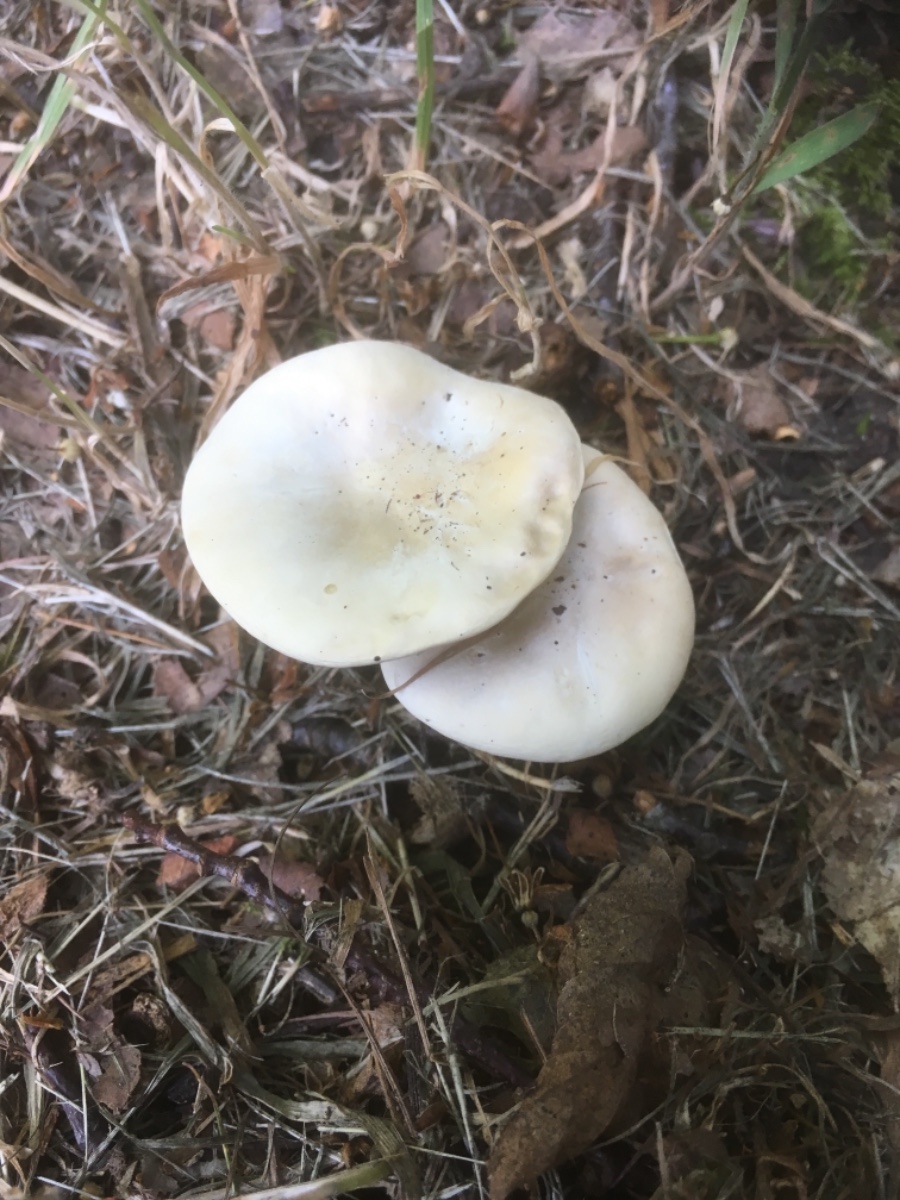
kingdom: Fungi
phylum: Basidiomycota
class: Agaricomycetes
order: Agaricales
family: Entolomataceae
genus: Clitopilus
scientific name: Clitopilus prunulus
